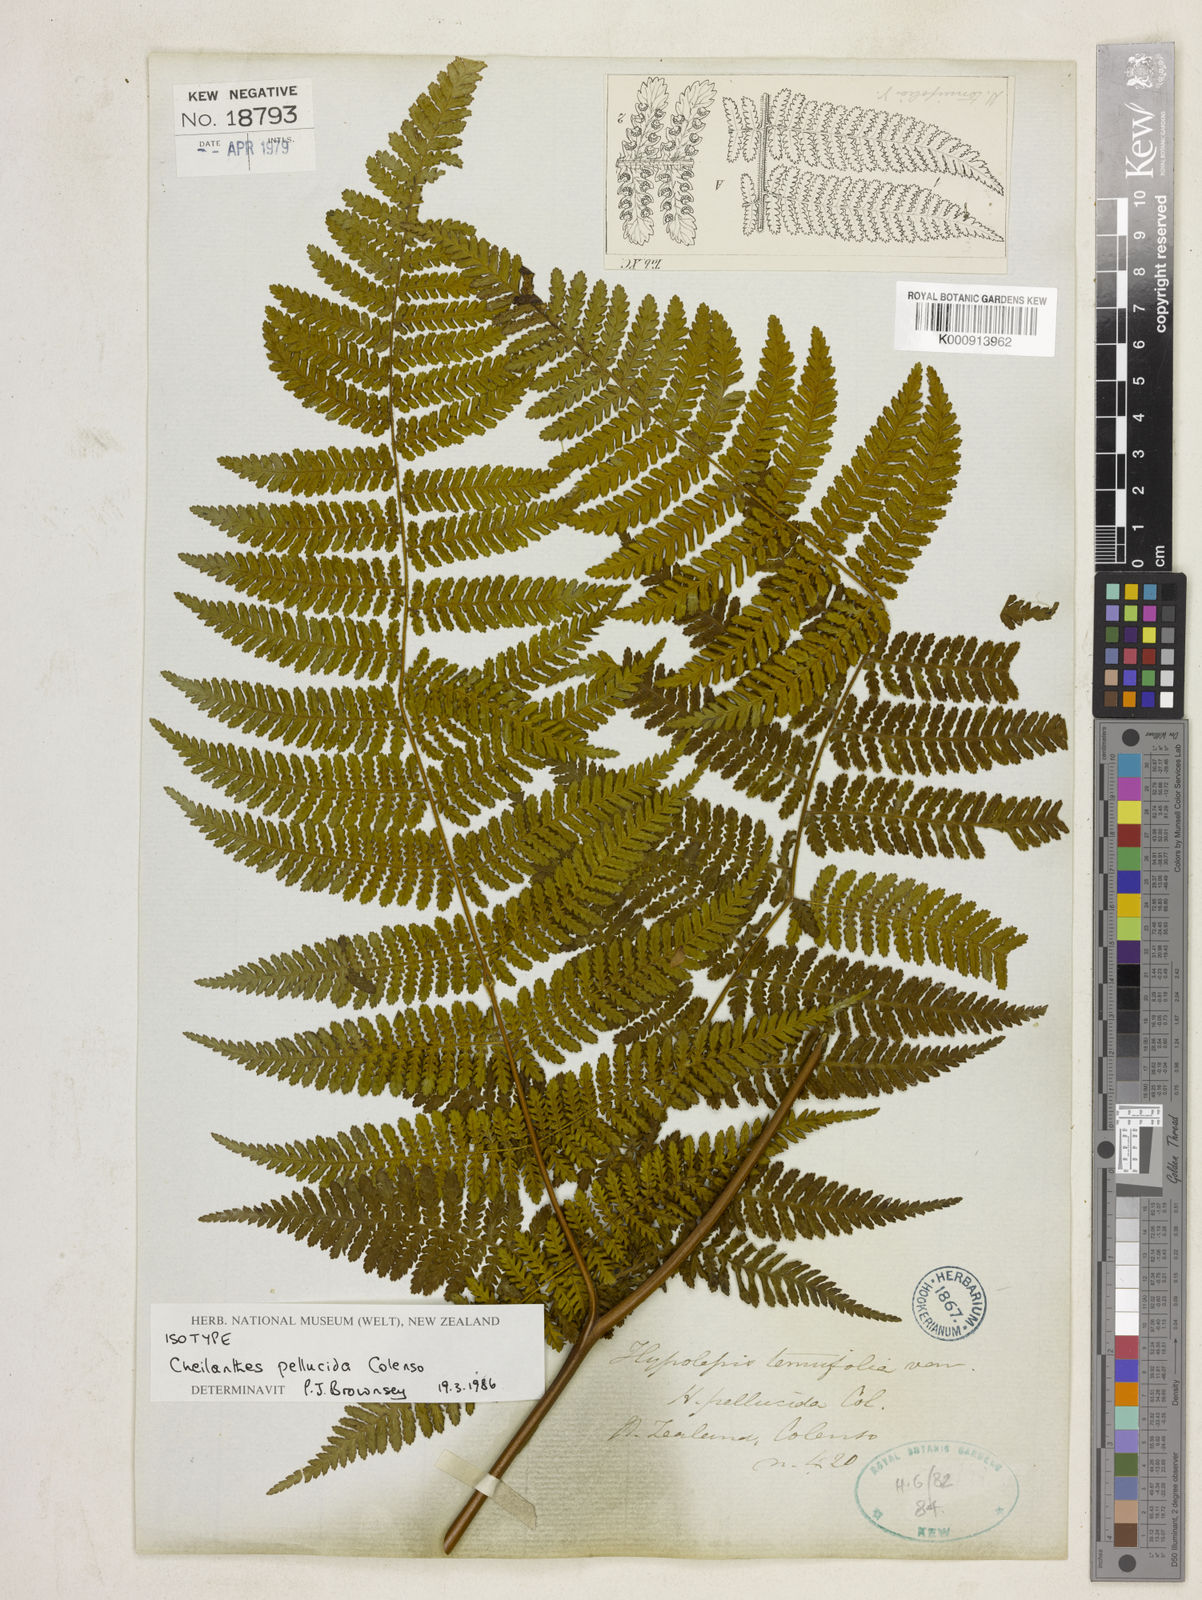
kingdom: Plantae
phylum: Tracheophyta
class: Polypodiopsida
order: Polypodiales
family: Dennstaedtiaceae
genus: Hypolepis
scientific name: Hypolepis dicksonioides
